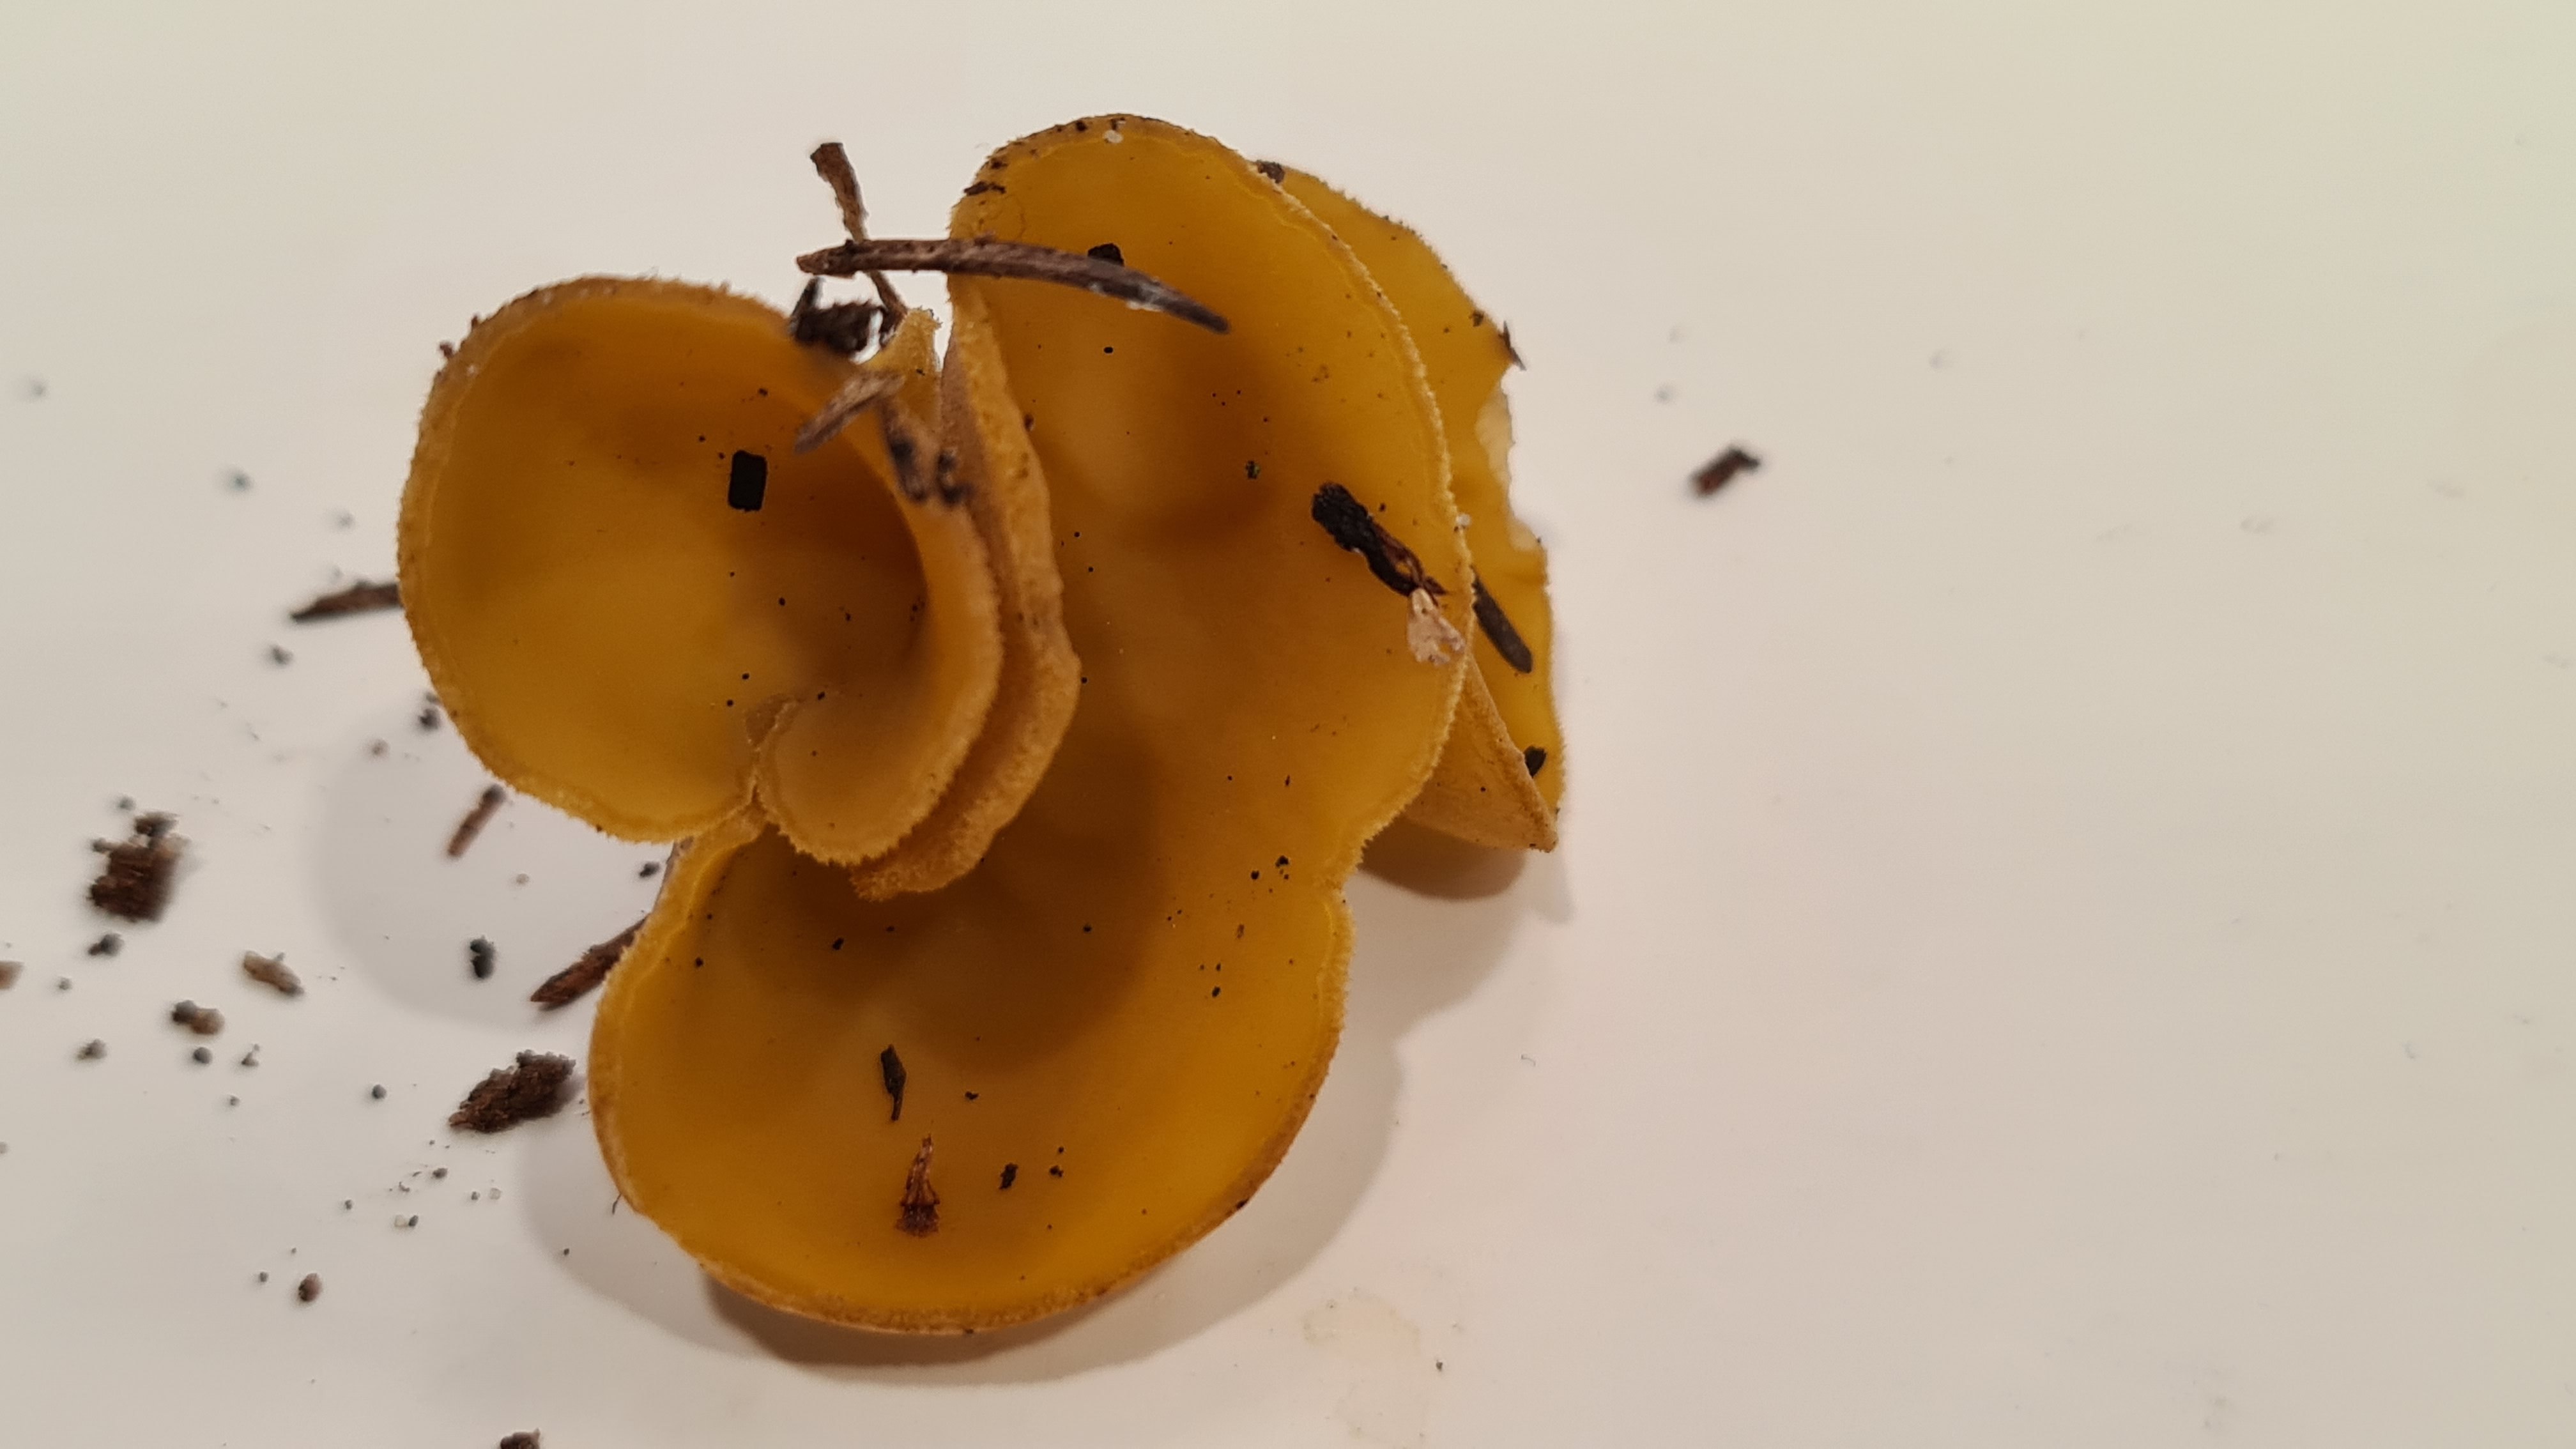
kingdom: Fungi
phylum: Ascomycota
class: Pezizomycetes
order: Pezizales
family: Pyronemataceae
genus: Sowerbyella
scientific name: Sowerbyella
